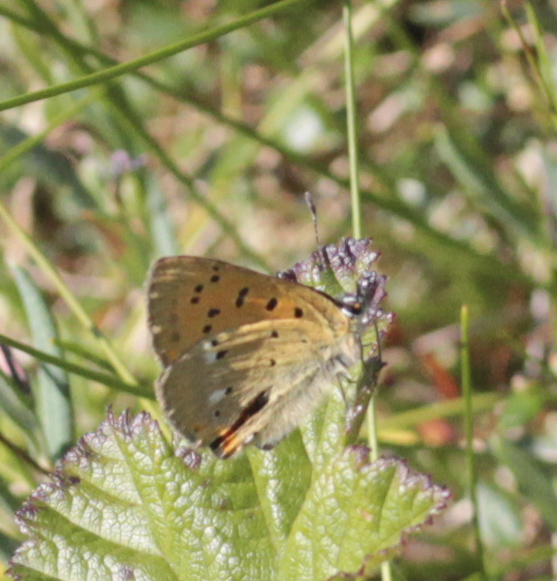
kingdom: Animalia
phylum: Arthropoda
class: Insecta
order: Lepidoptera
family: Lycaenidae
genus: Lycaena
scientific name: Lycaena virgaureae
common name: Scarce copper
